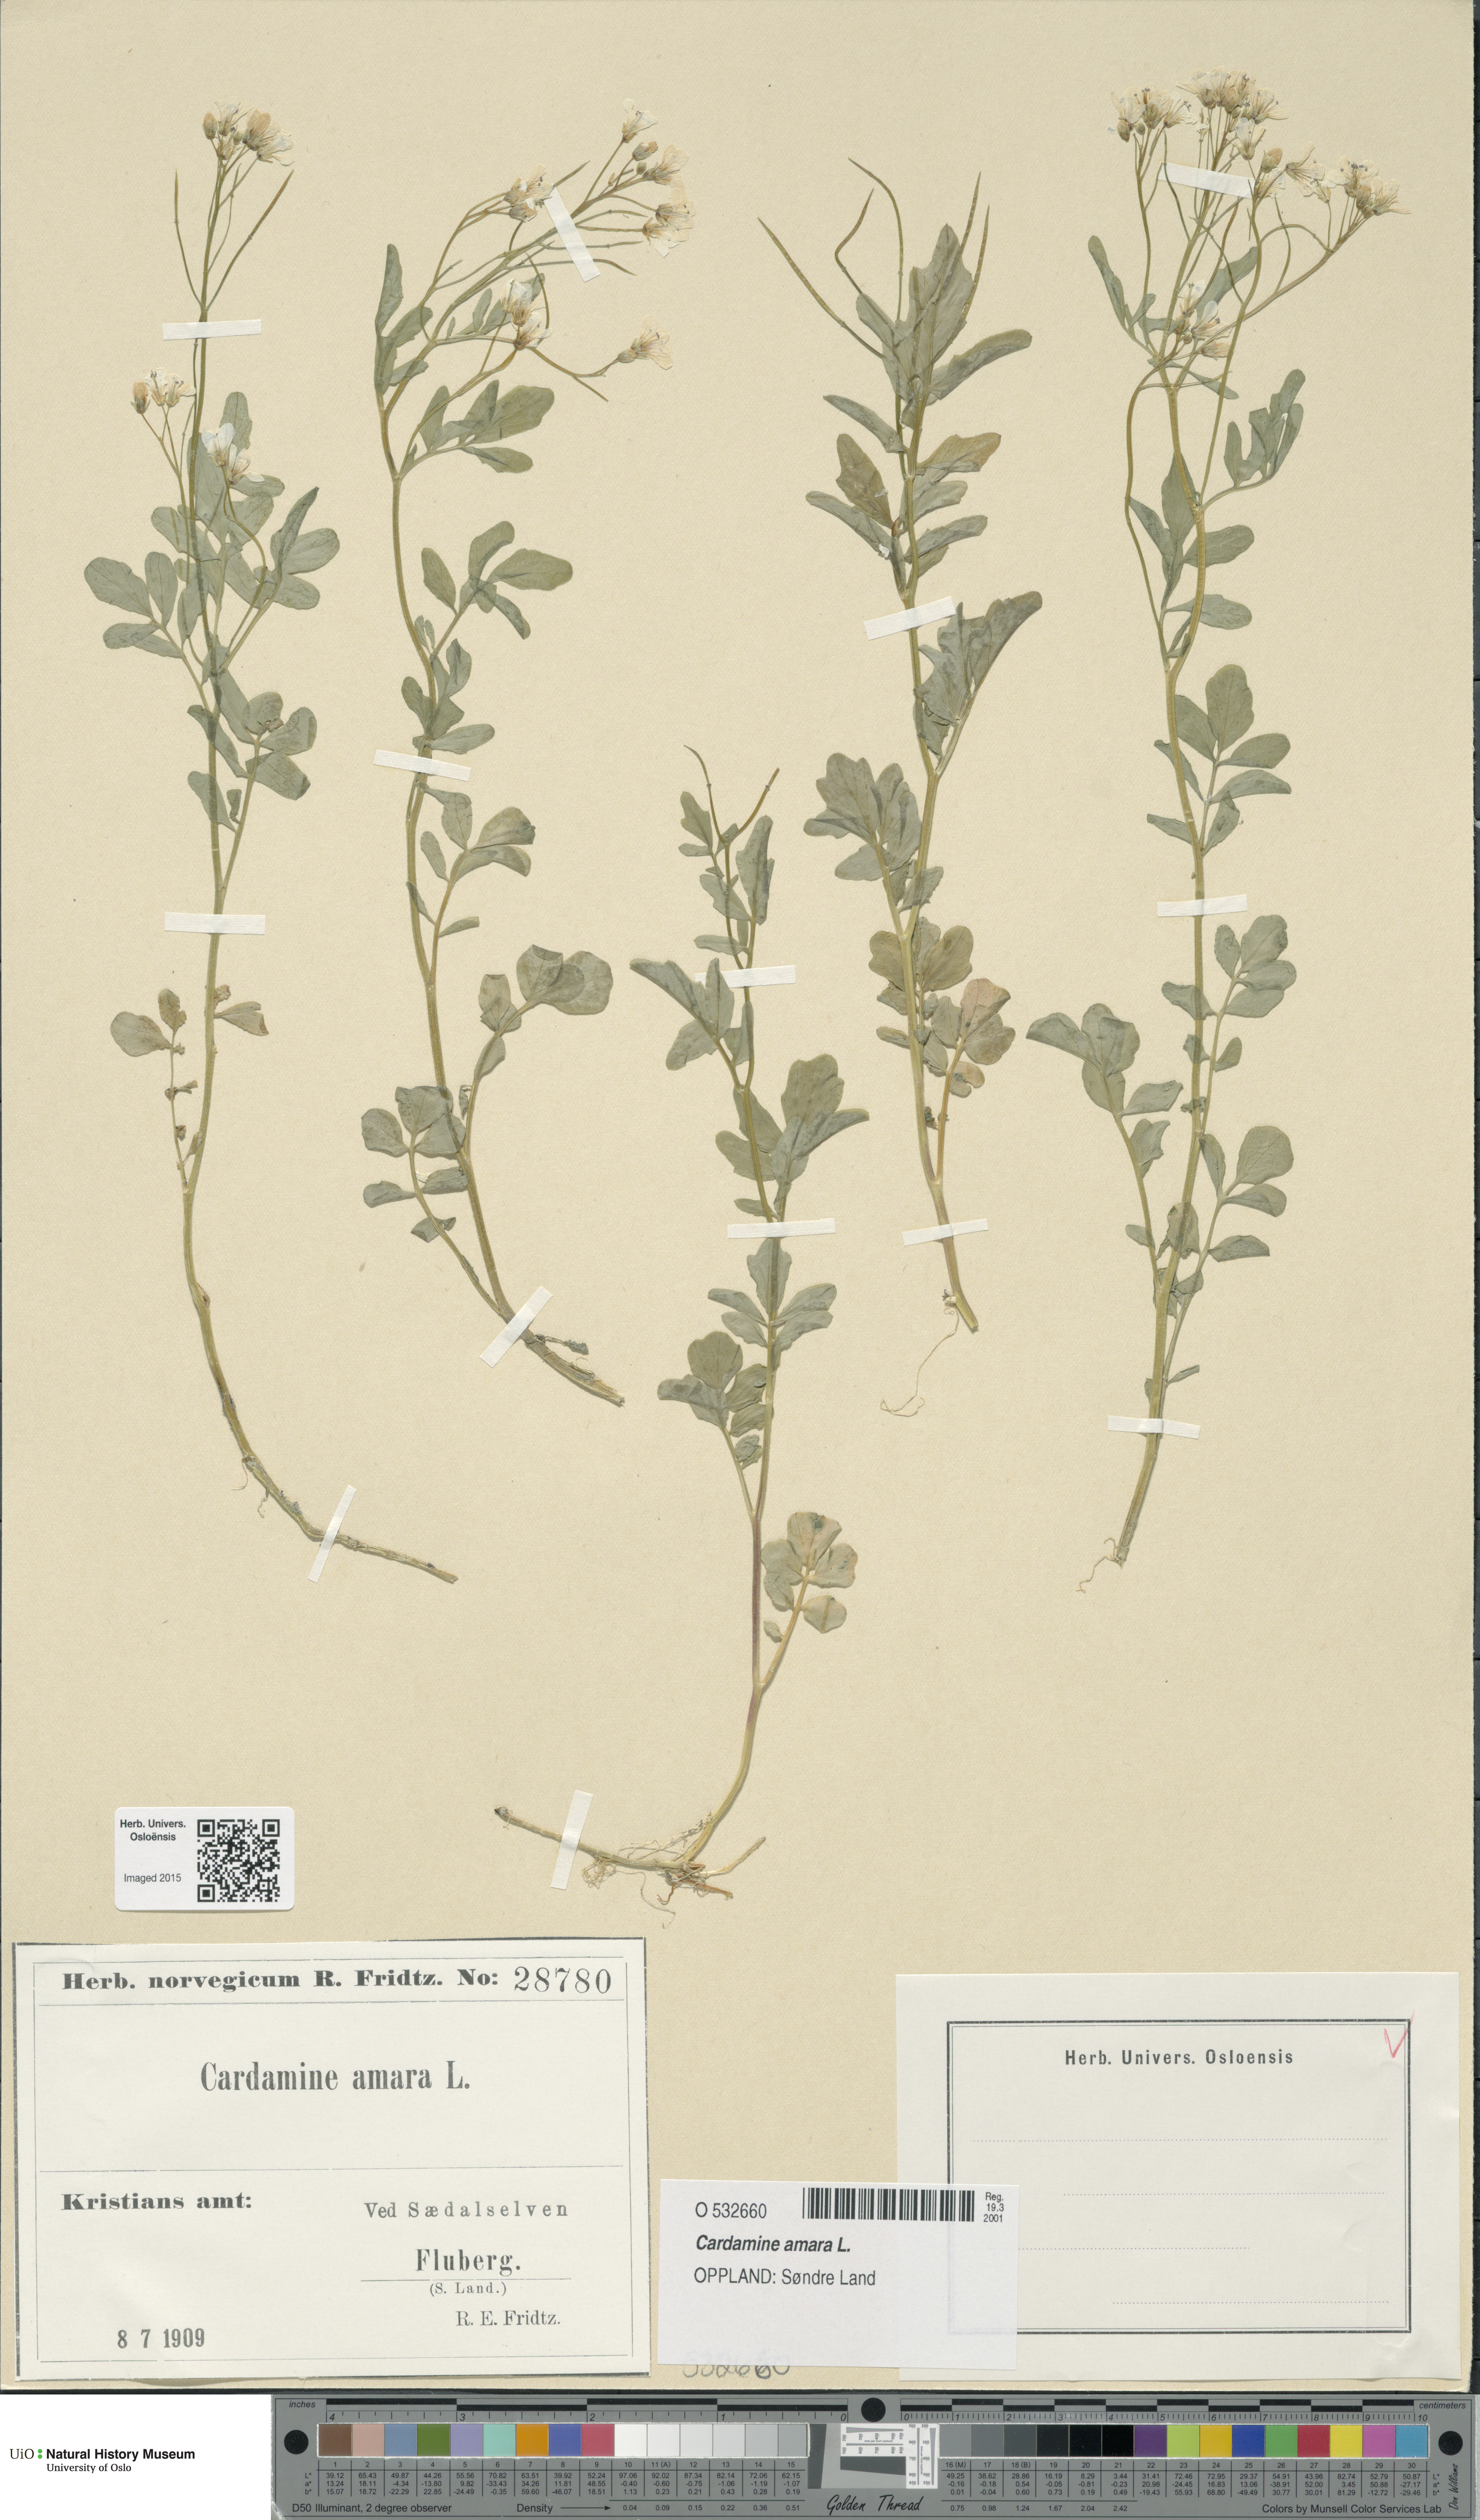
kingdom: Plantae
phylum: Tracheophyta
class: Magnoliopsida
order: Brassicales
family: Brassicaceae
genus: Cardamine
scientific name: Cardamine amara
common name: Large bitter-cress
